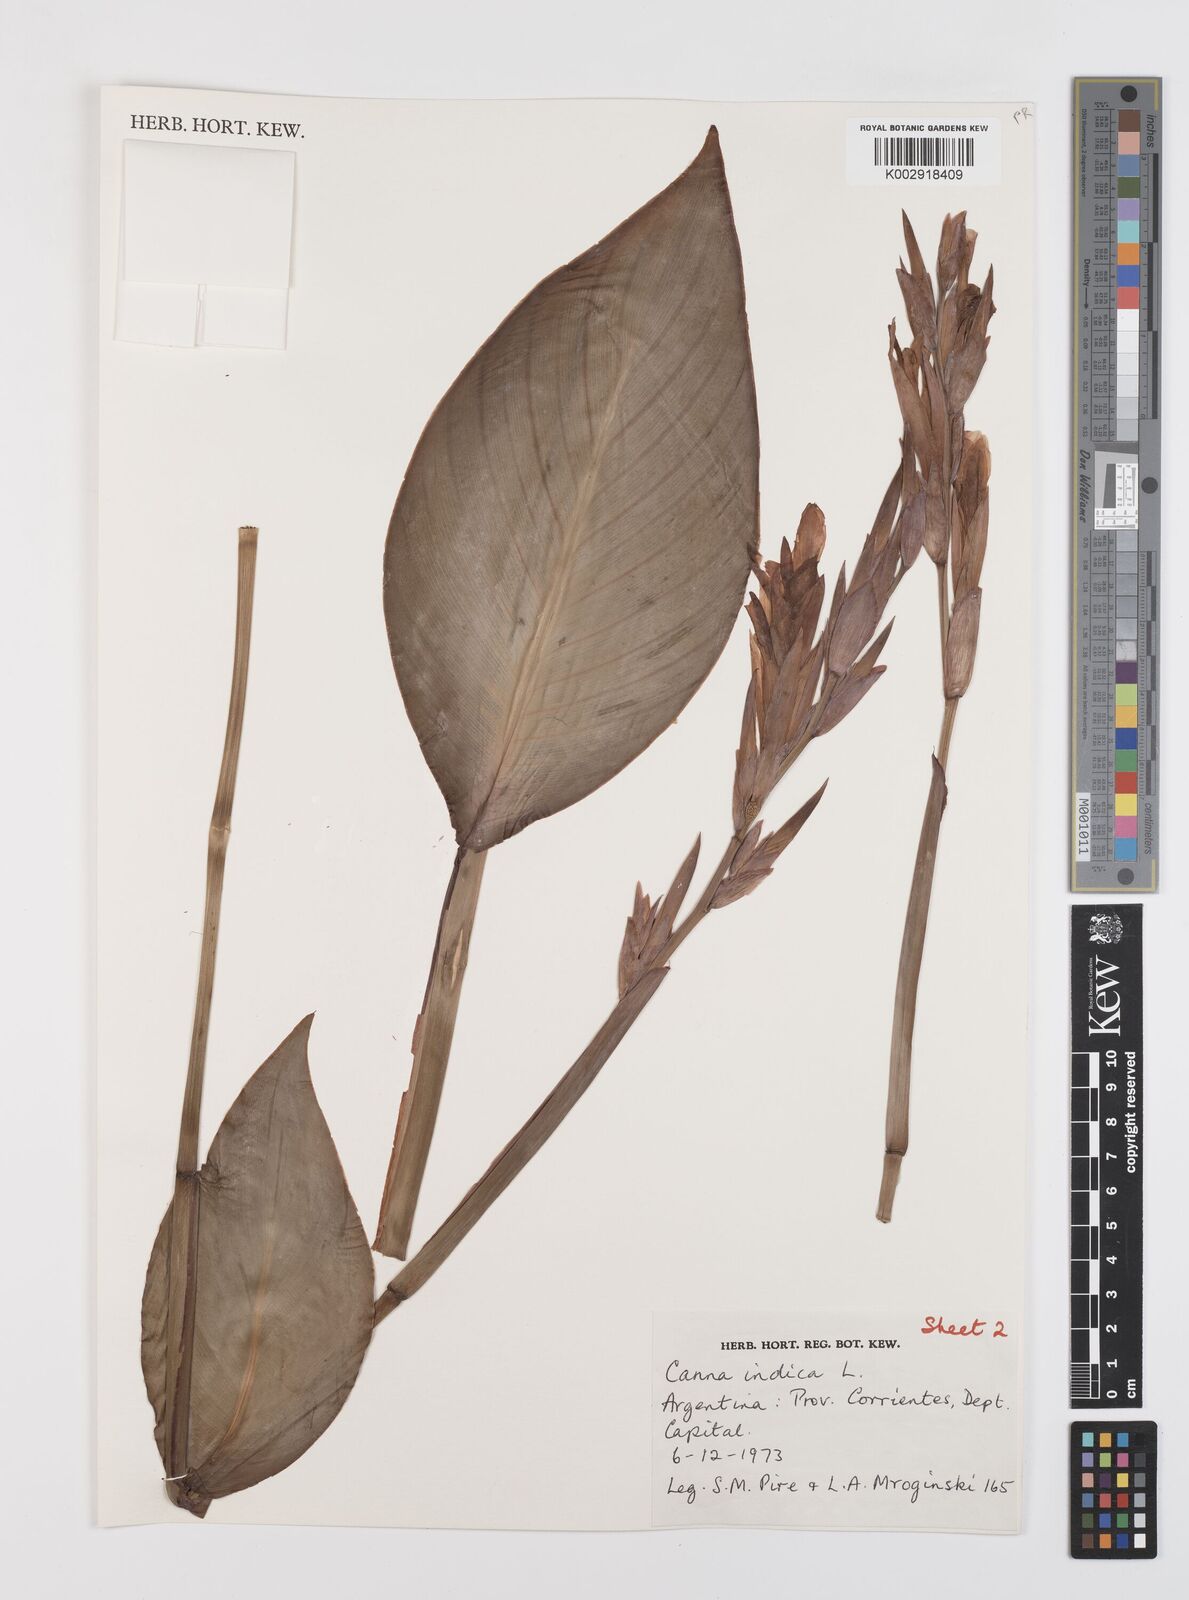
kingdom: Plantae
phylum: Tracheophyta
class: Liliopsida
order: Zingiberales
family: Cannaceae
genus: Canna
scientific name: Canna indica
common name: Indian shot
